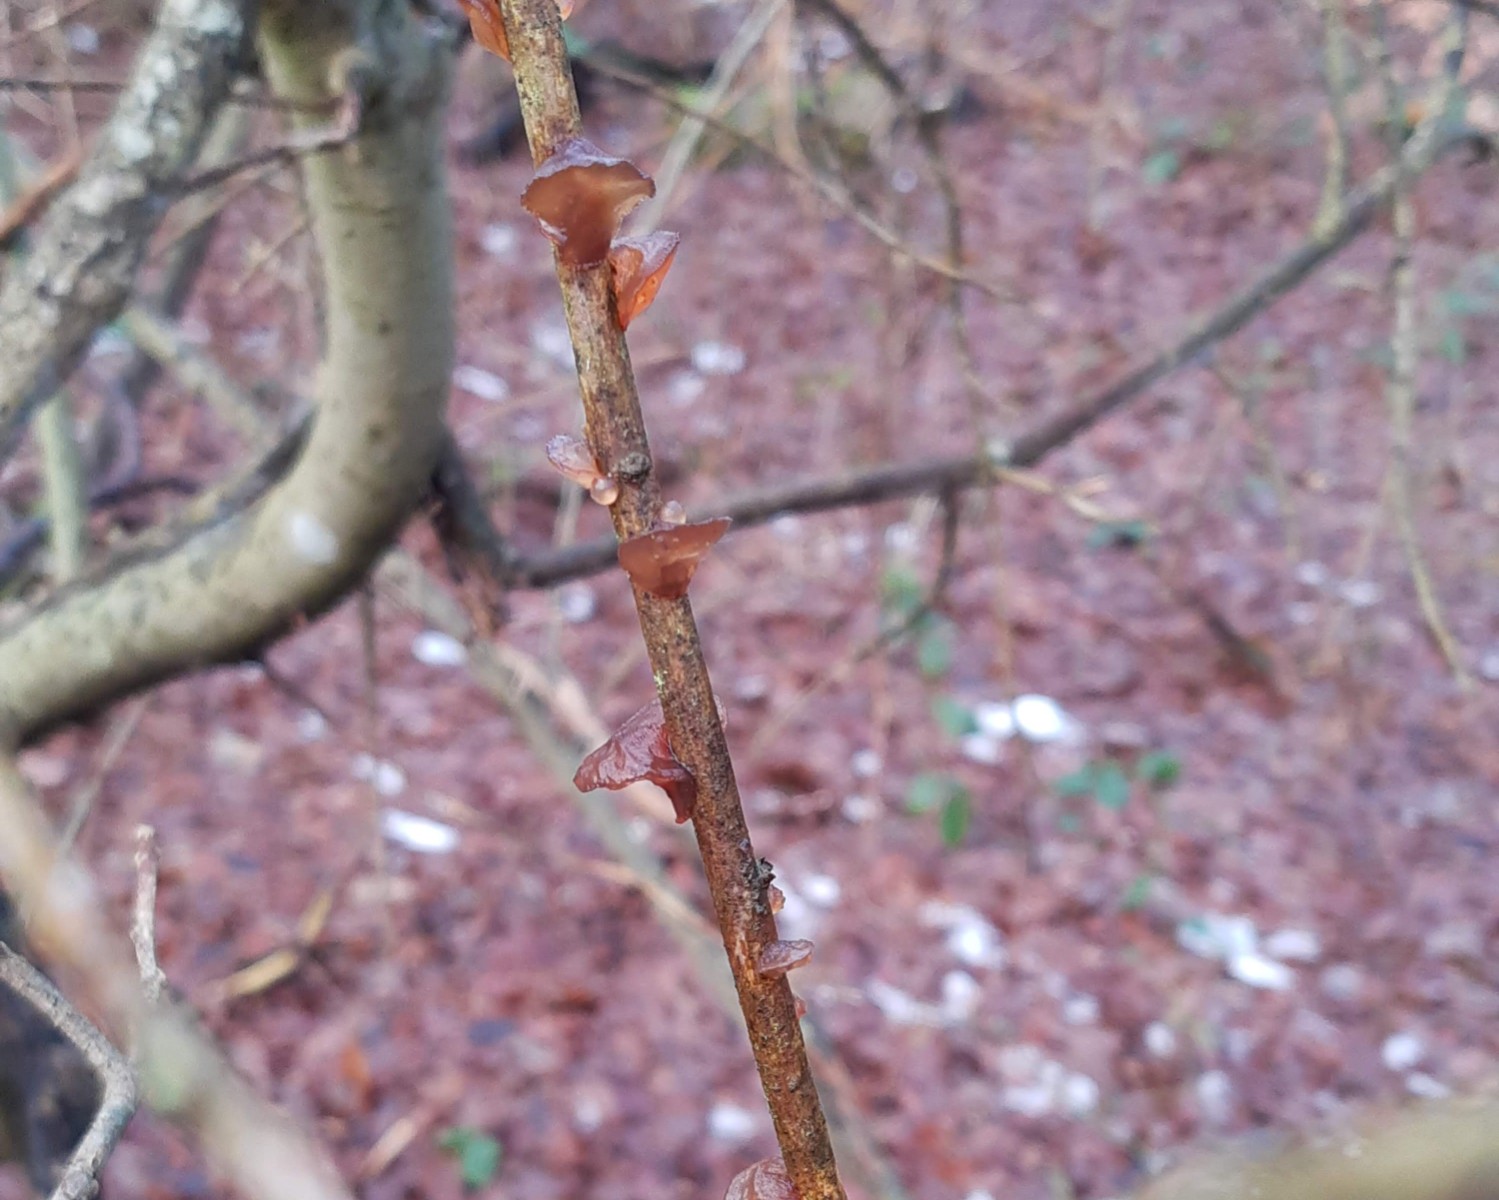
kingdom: Fungi
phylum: Basidiomycota
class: Agaricomycetes
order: Auriculariales
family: Auriculariaceae
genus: Exidia
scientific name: Exidia recisa
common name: pile-bævretop
